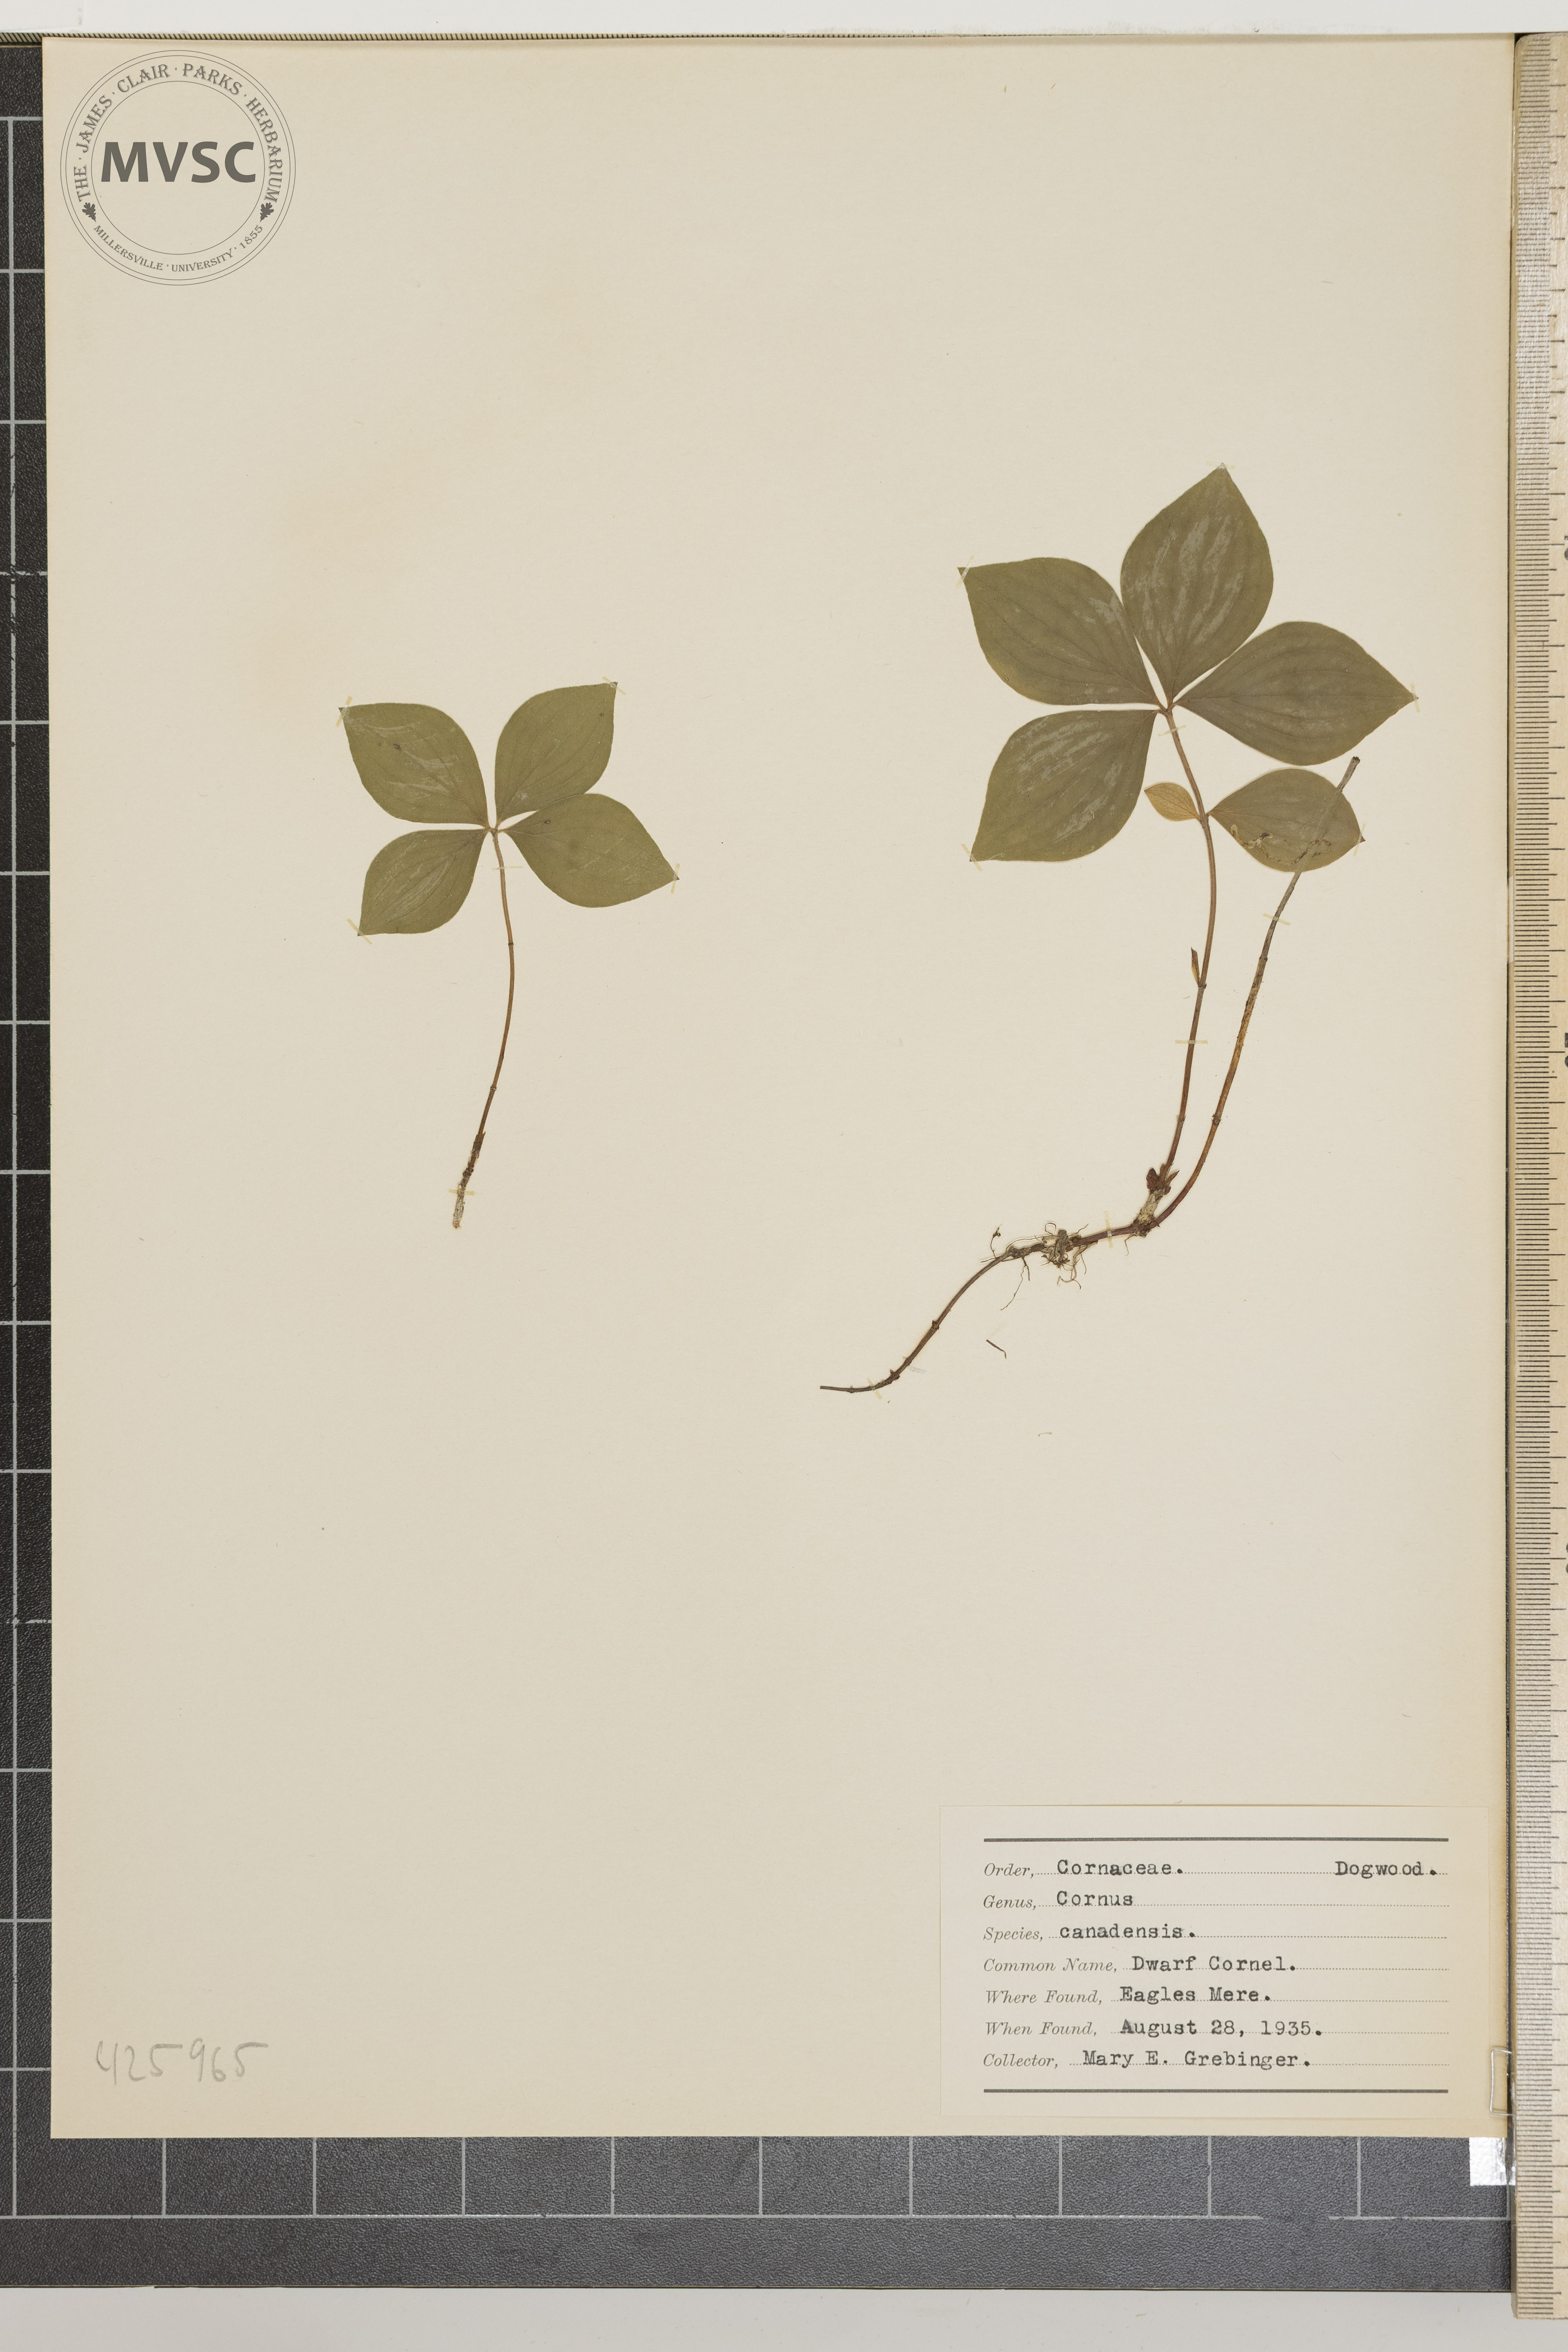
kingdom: Plantae
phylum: Tracheophyta
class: Magnoliopsida
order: Cornales
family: Cornaceae
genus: Cornus
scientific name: Cornus canadensis
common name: Dwarf cornel
